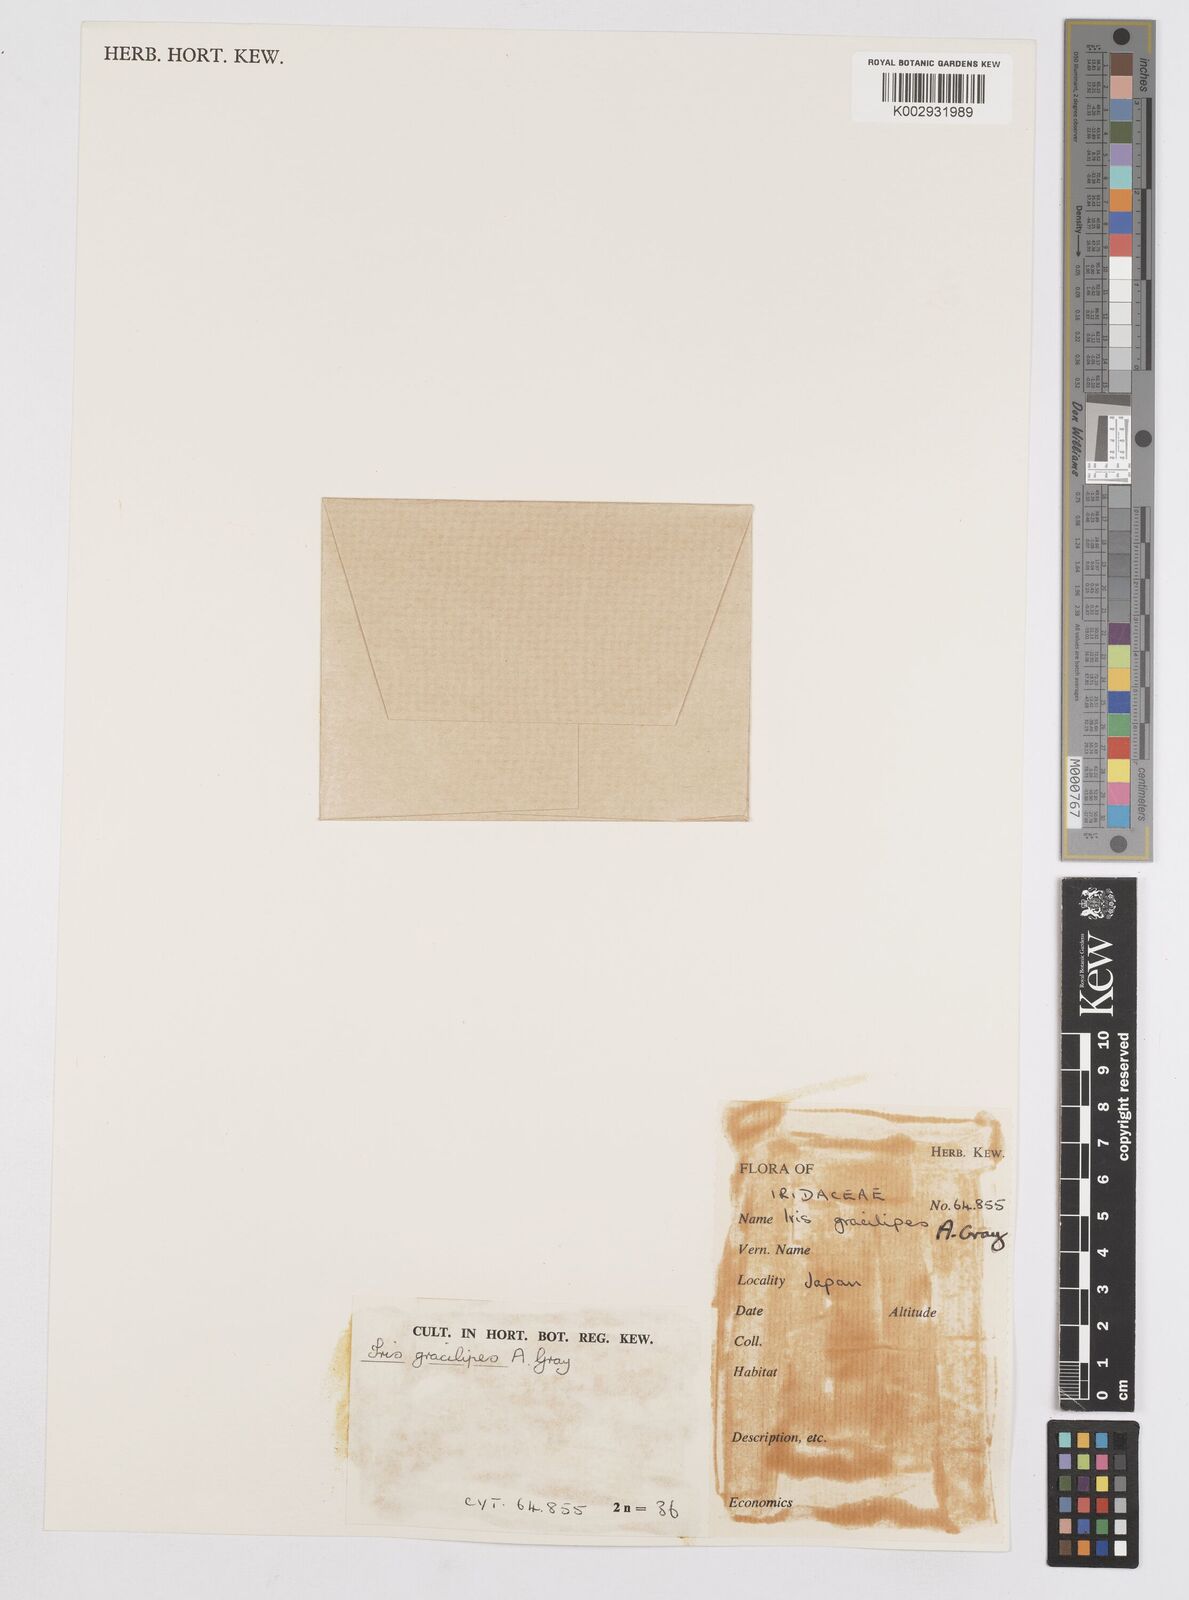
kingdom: Plantae
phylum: Tracheophyta
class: Liliopsida
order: Asparagales
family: Iridaceae
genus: Iris
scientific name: Iris gracilipes
